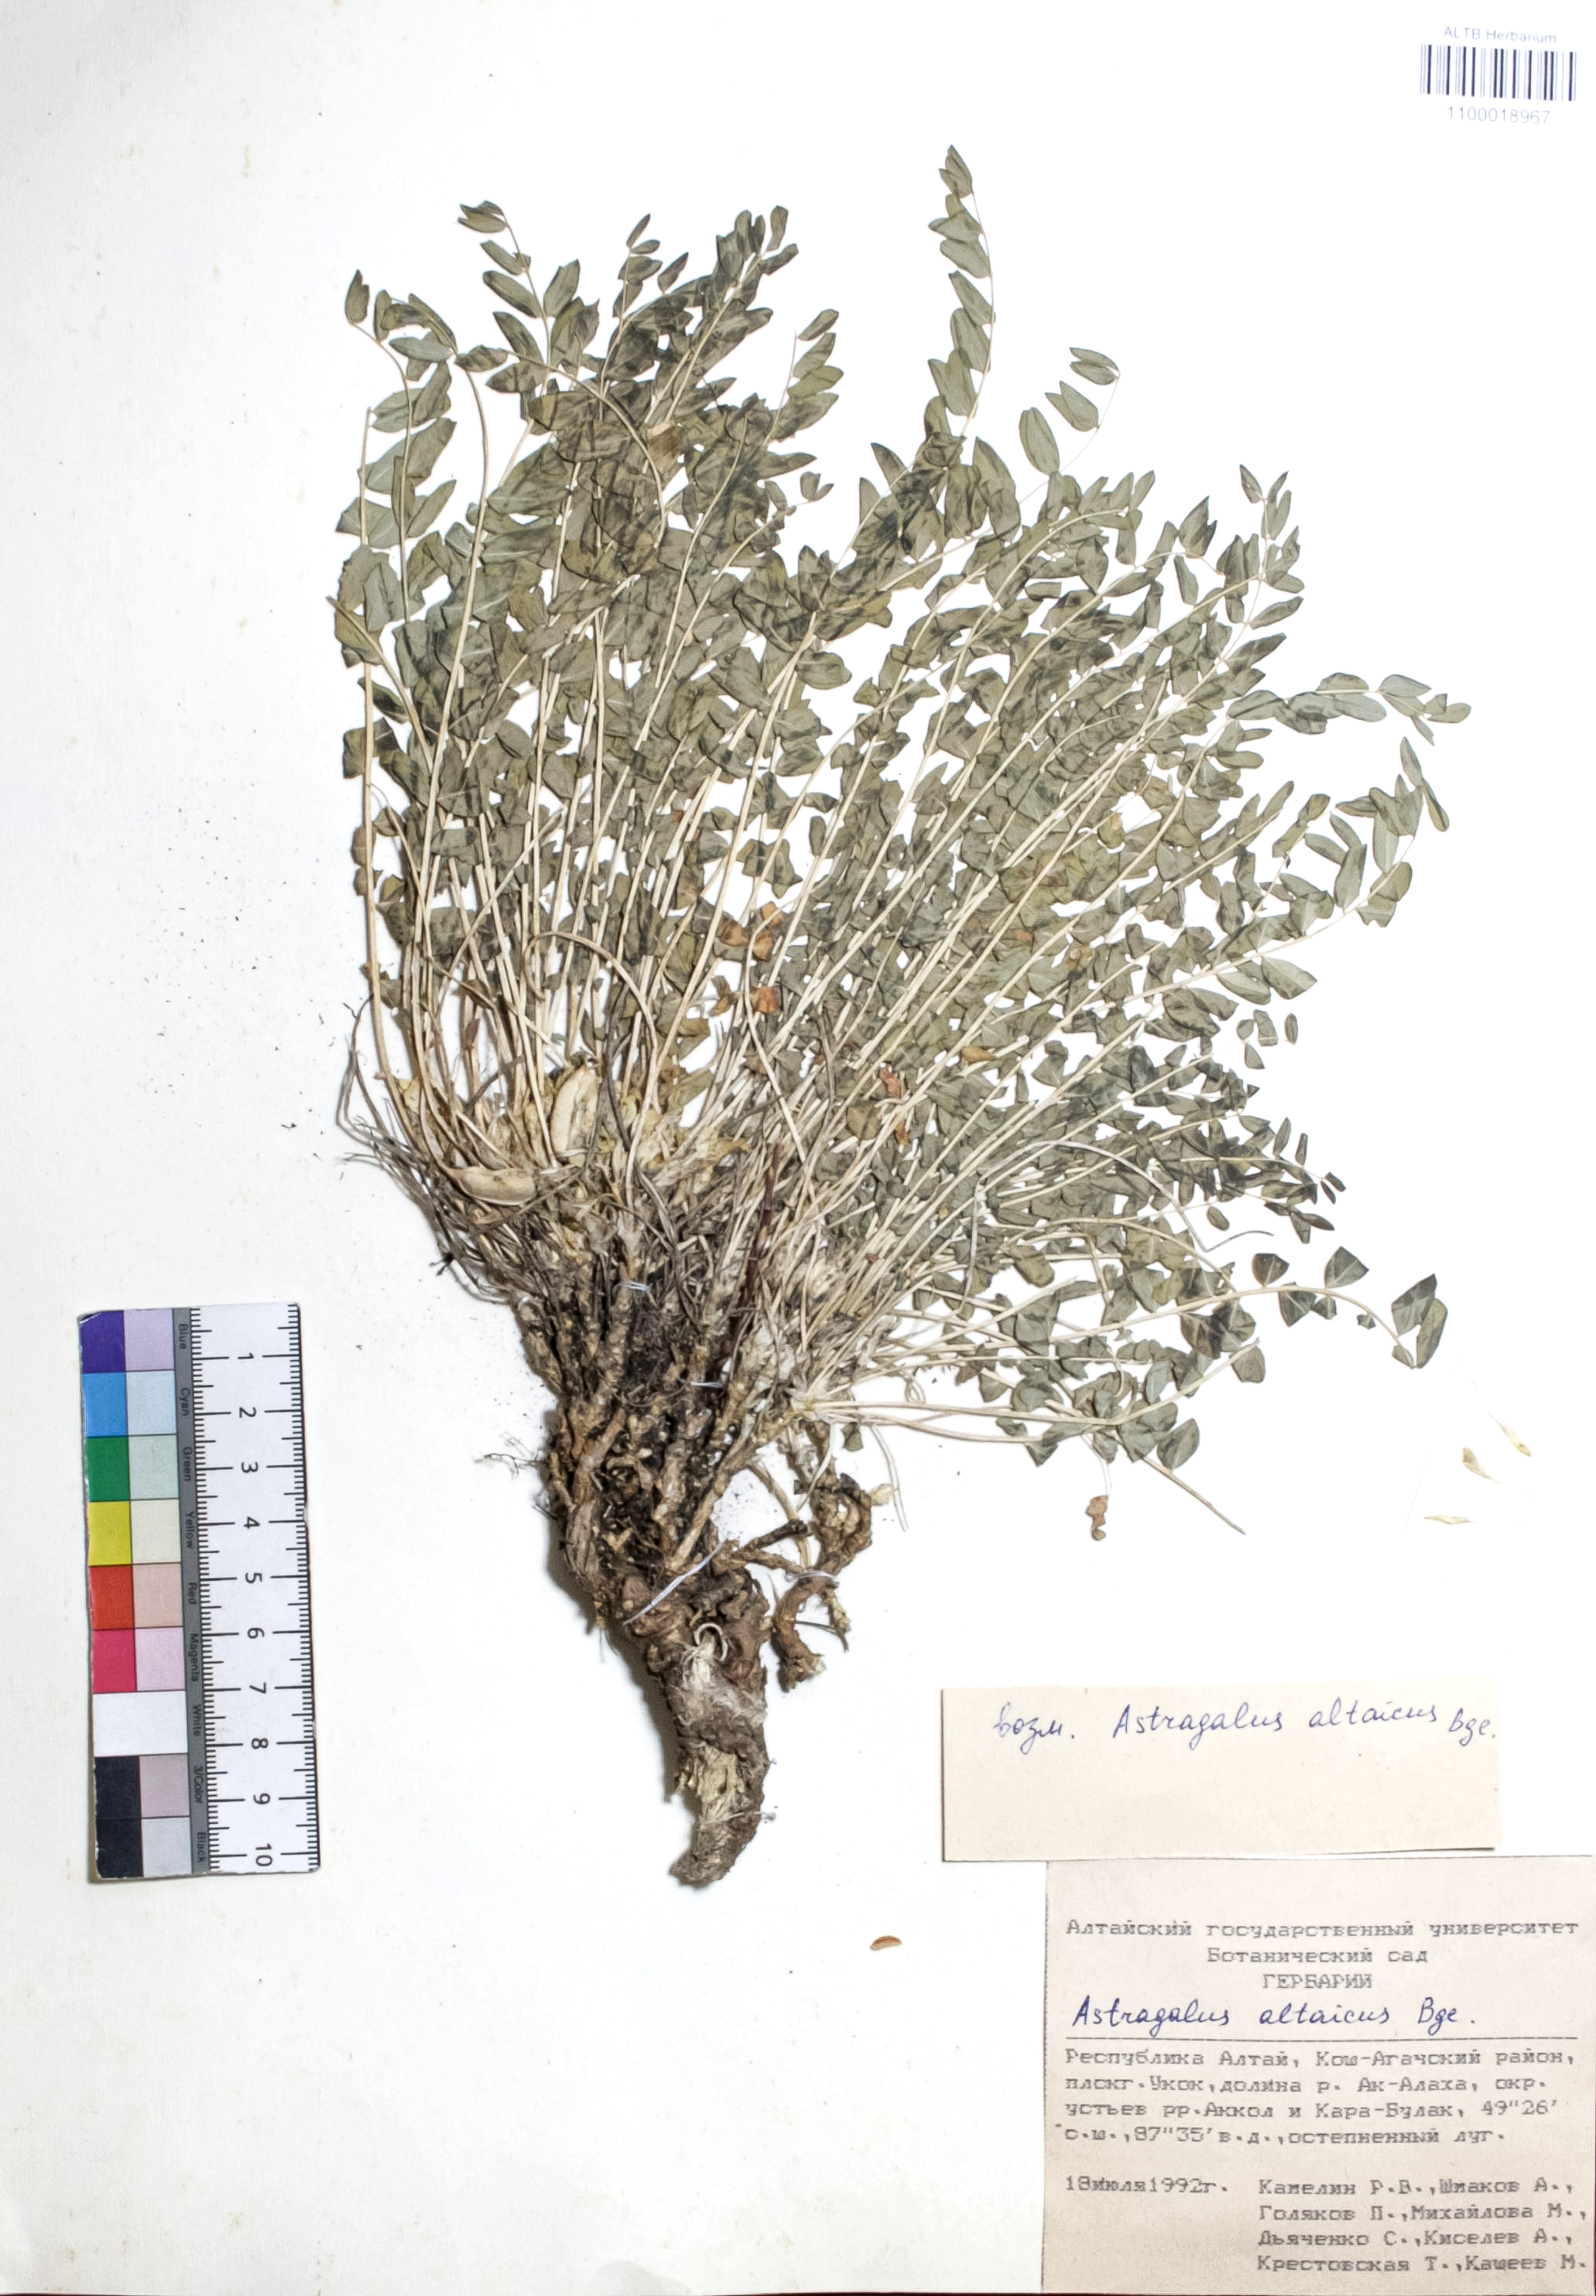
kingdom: Plantae
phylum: Tracheophyta
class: Magnoliopsida
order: Fabales
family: Fabaceae
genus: Astragalus
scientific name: Astragalus altaicola
